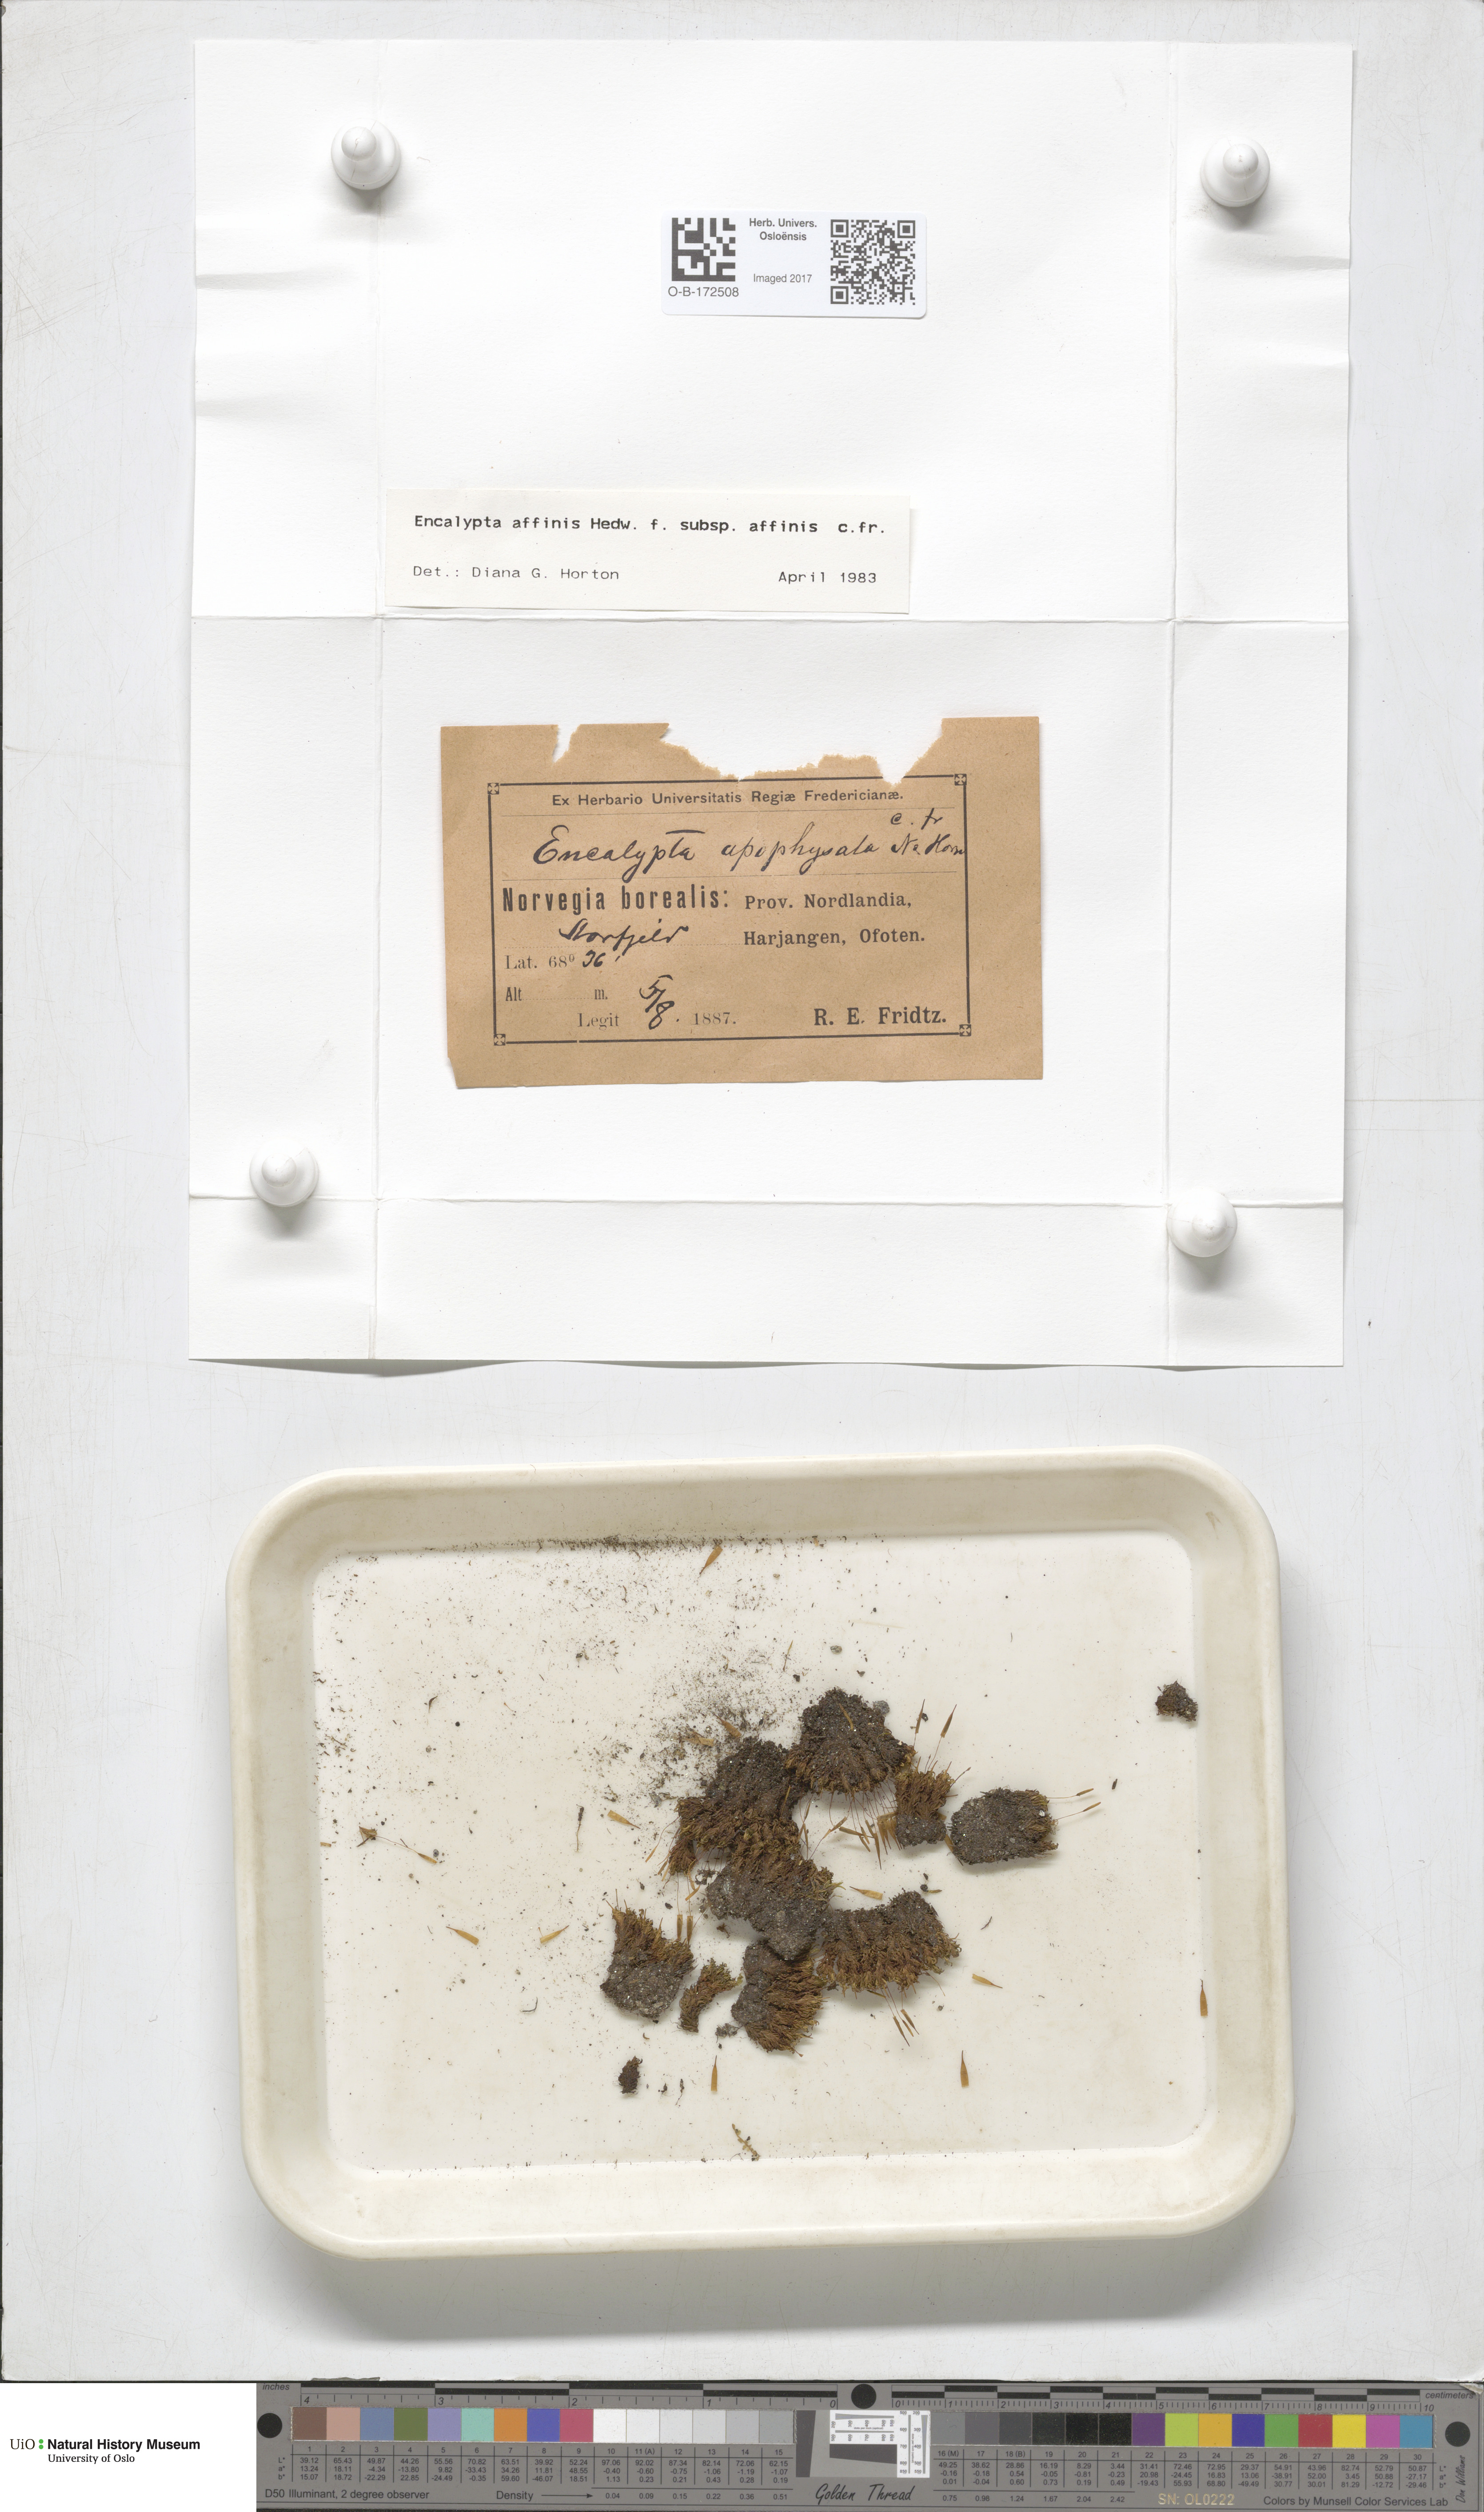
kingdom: Plantae
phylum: Bryophyta
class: Bryopsida
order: Encalyptales
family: Encalyptaceae
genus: Encalypta
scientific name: Encalypta affinis
